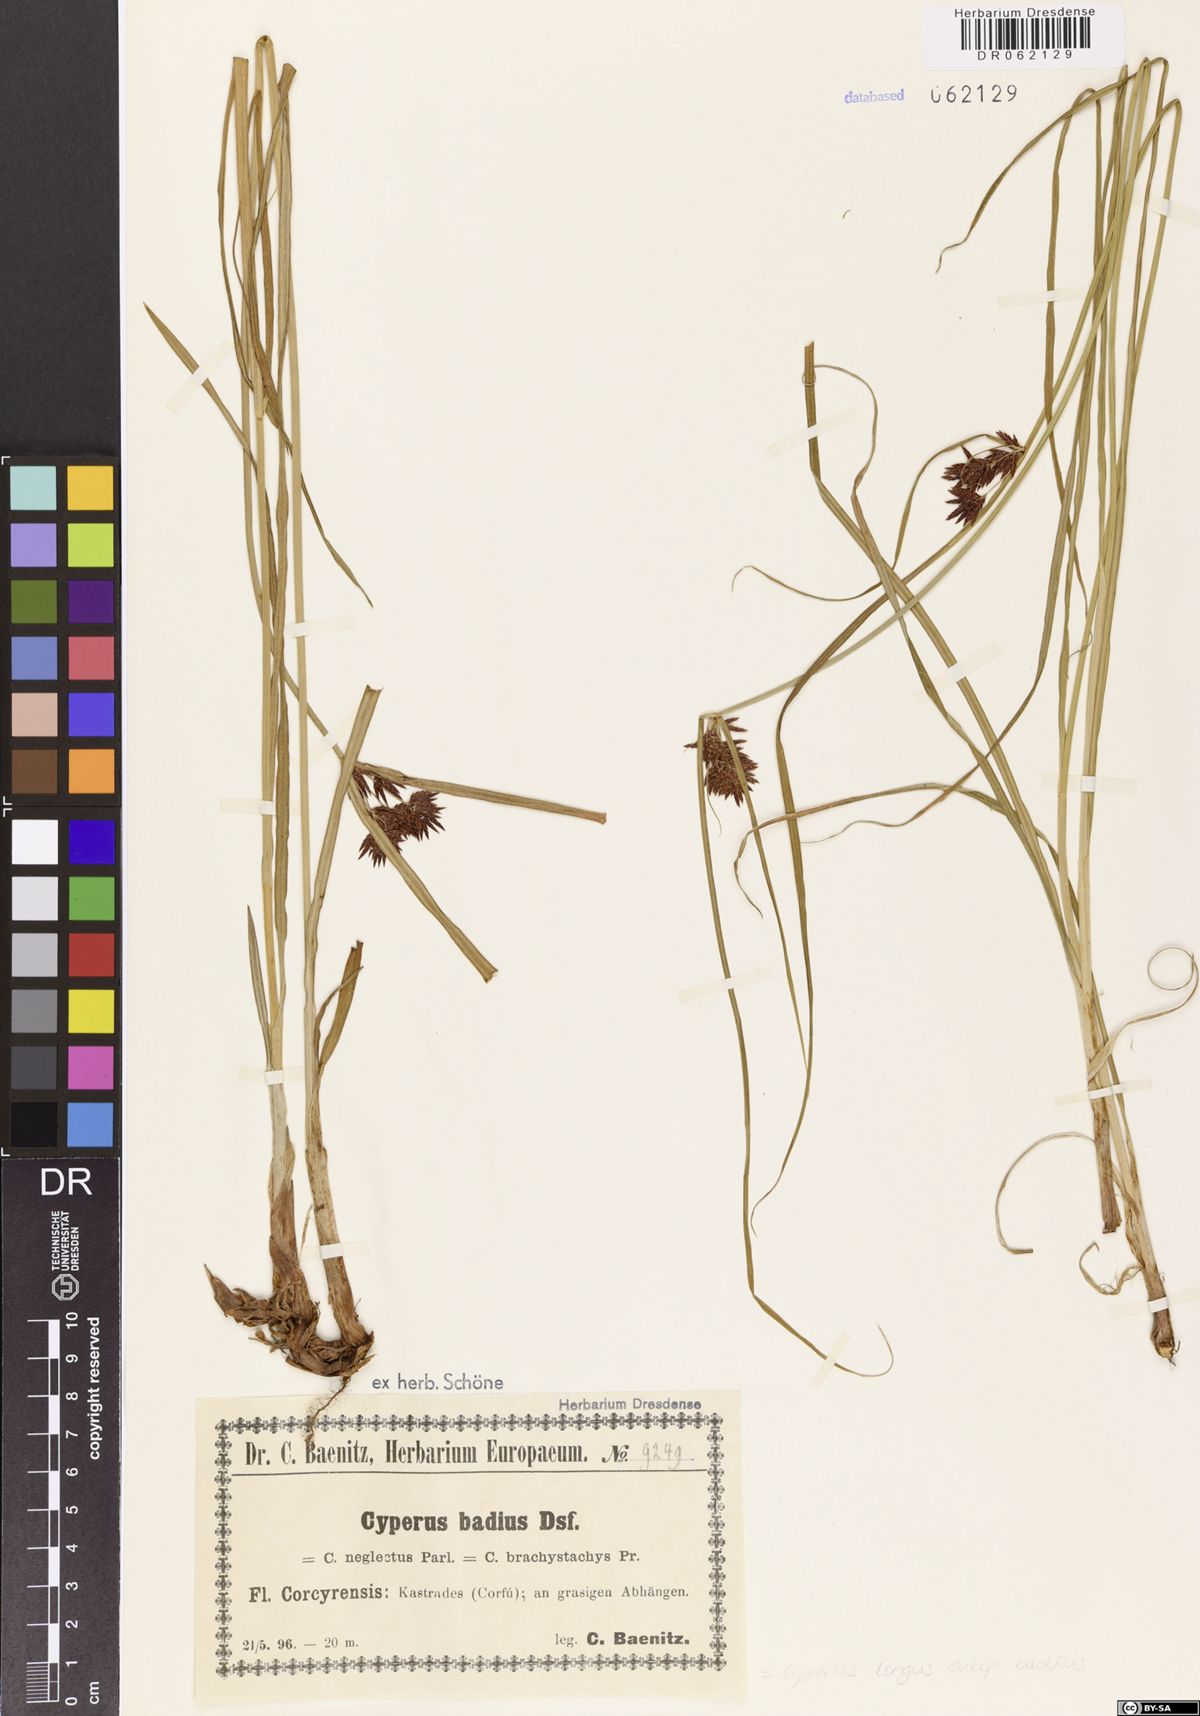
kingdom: Plantae
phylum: Tracheophyta
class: Liliopsida
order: Poales
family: Cyperaceae
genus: Cyperus
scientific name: Cyperus longus
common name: Galingale
